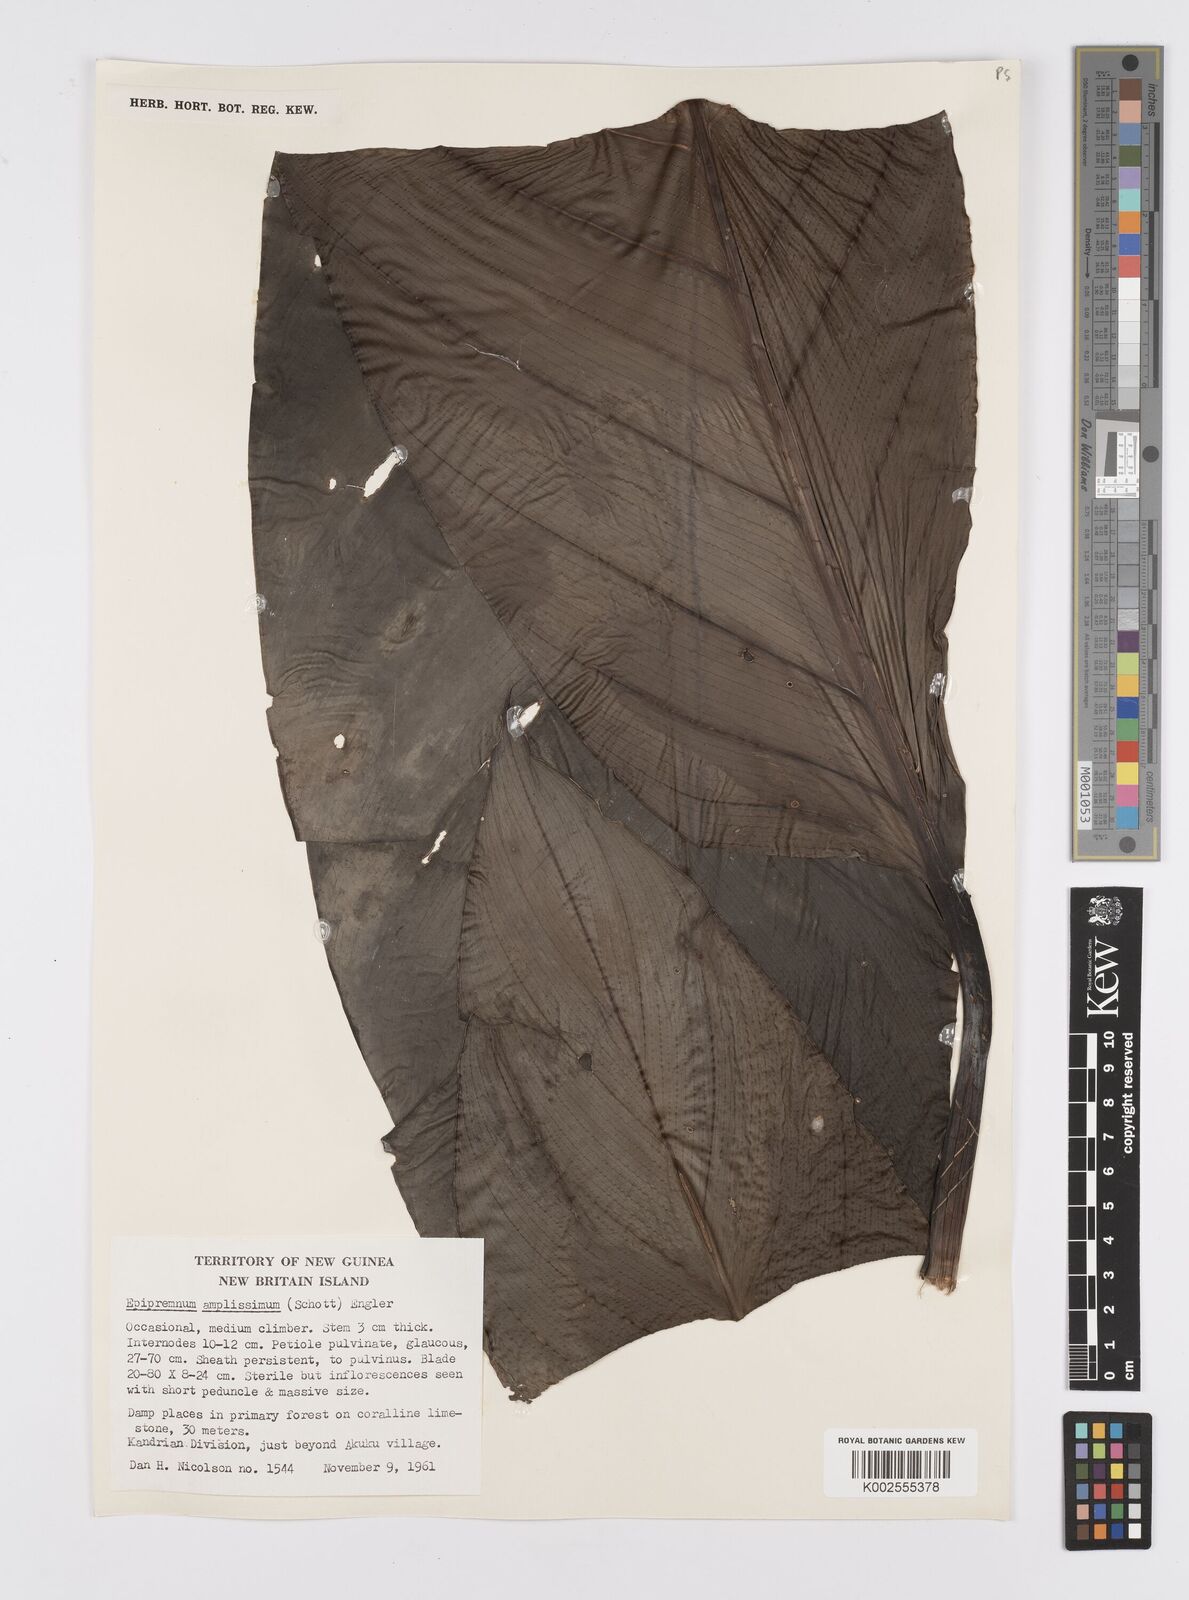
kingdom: Plantae
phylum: Tracheophyta
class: Liliopsida
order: Alismatales
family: Araceae
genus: Epipremnum
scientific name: Epipremnum amplissimum
